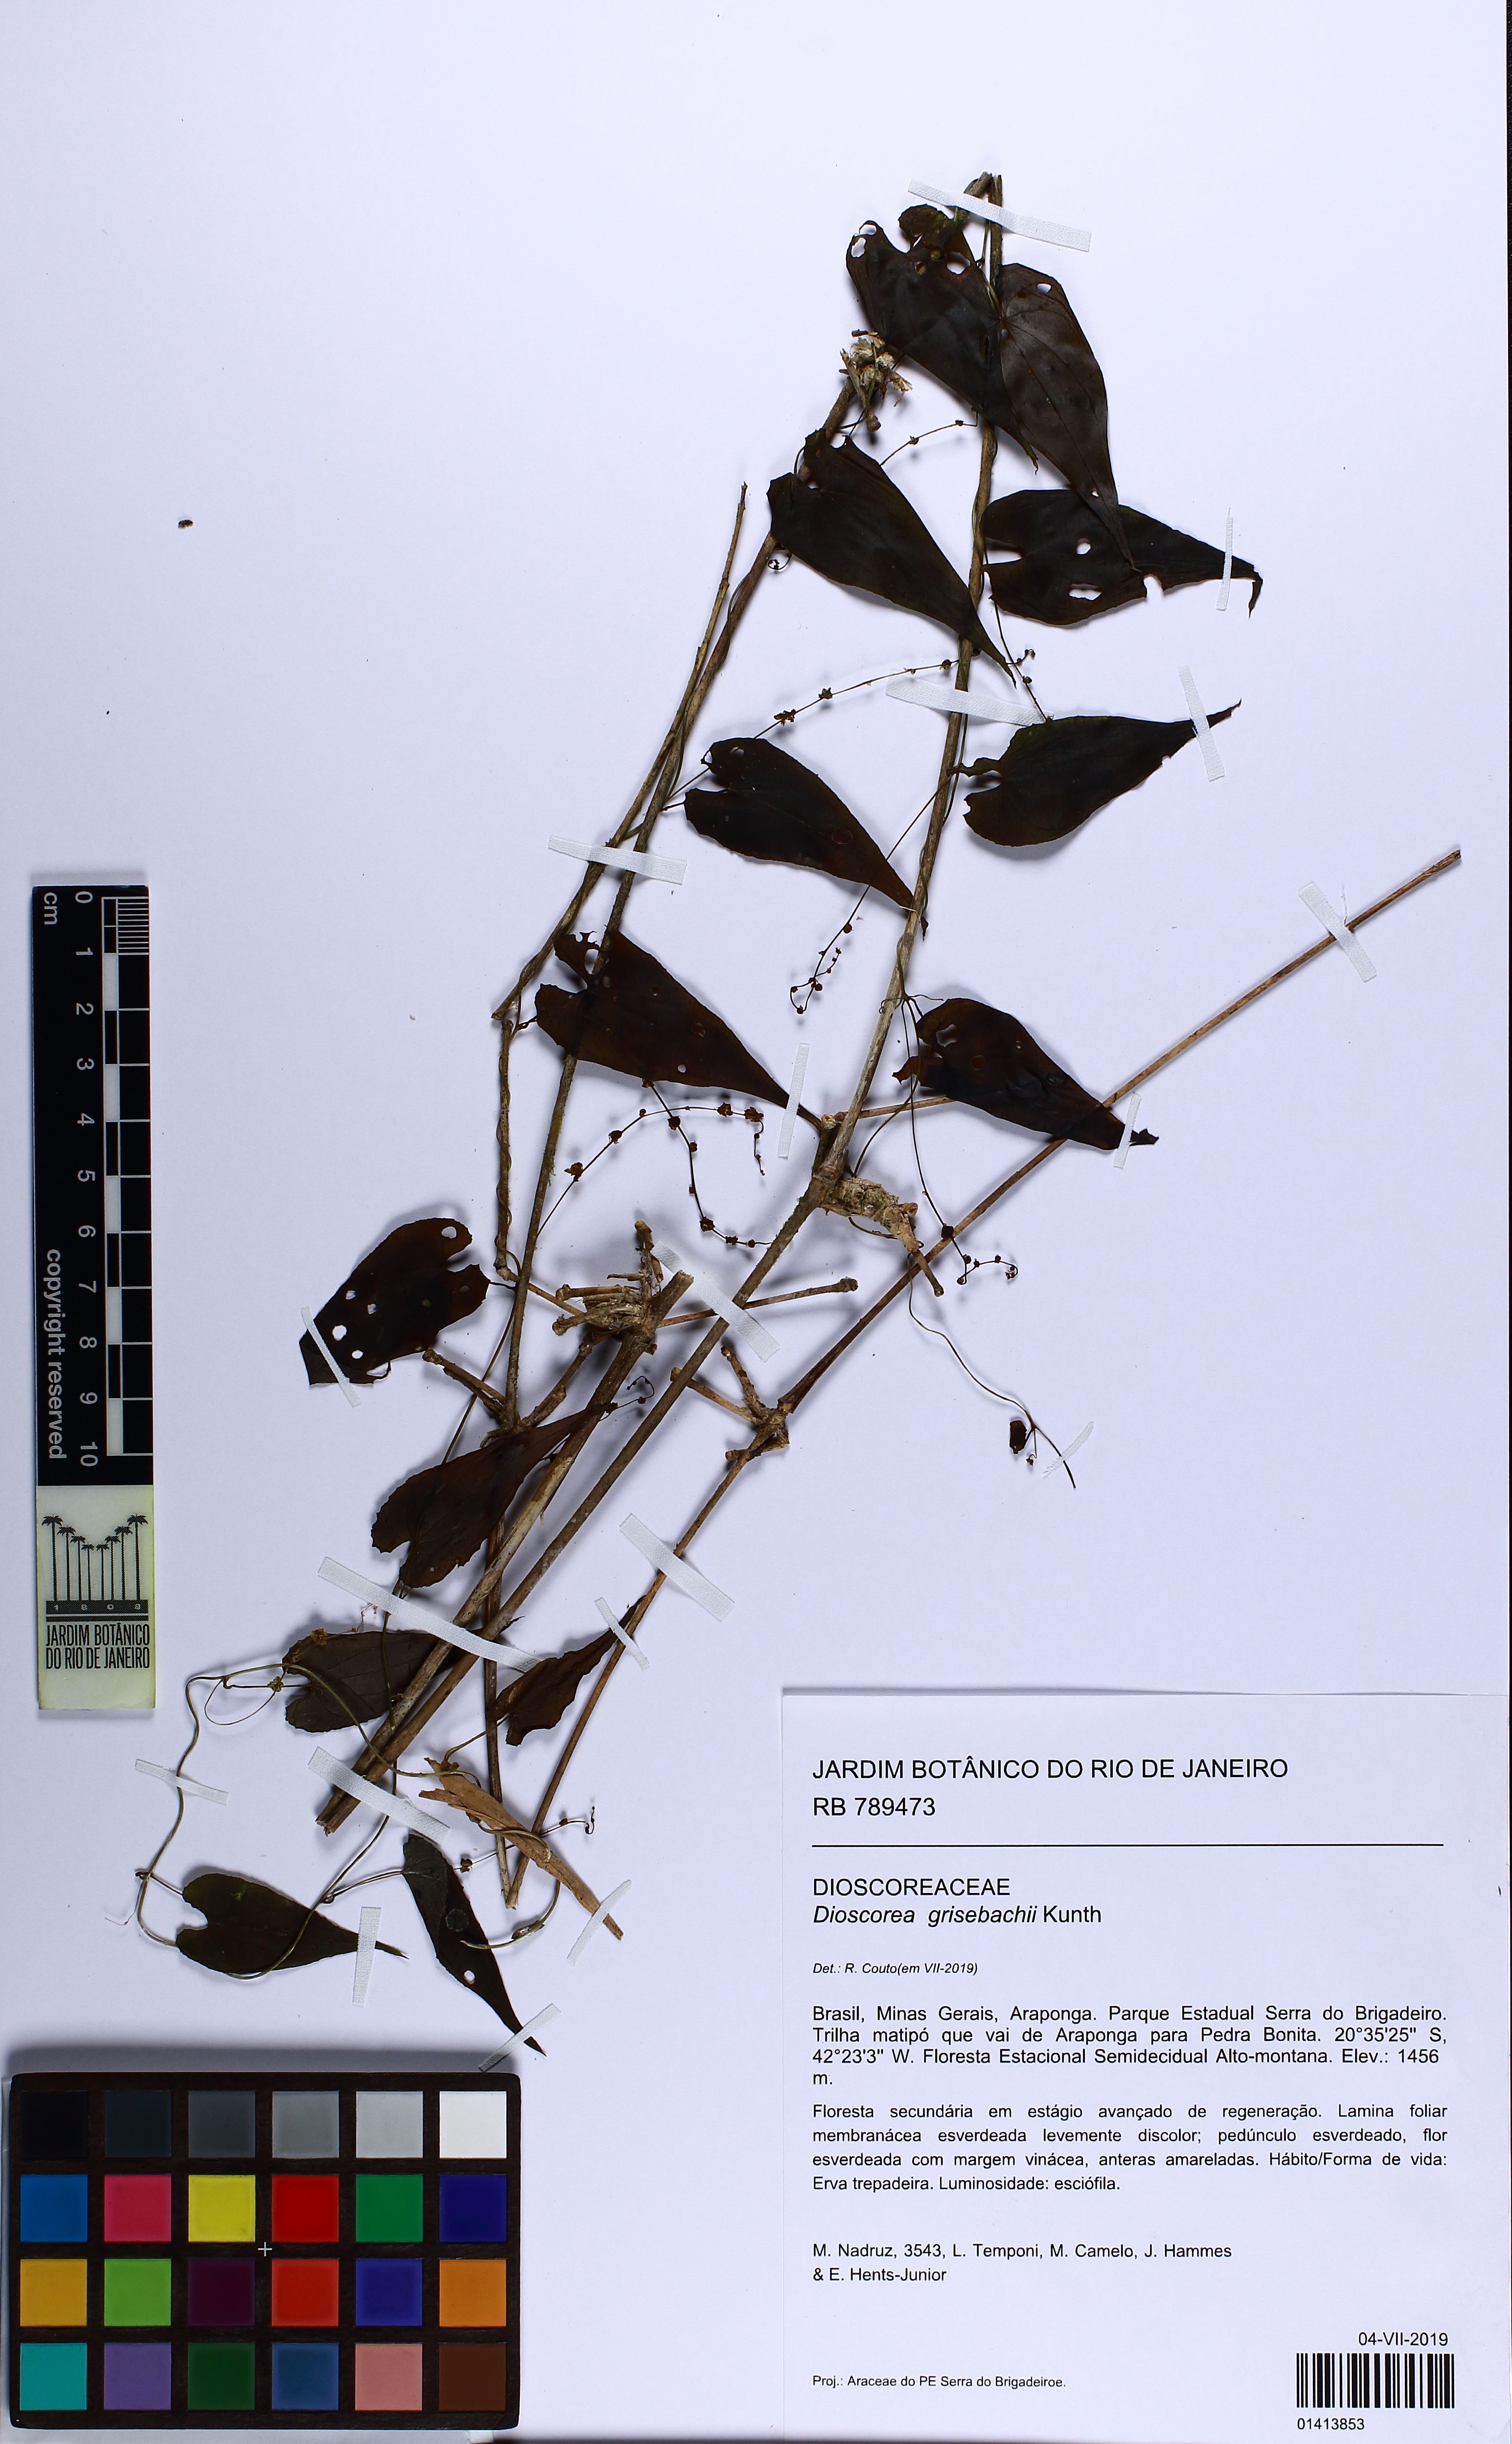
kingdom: Plantae
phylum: Tracheophyta
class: Liliopsida
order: Dioscoreales
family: Dioscoreaceae
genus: Dioscorea
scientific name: Dioscorea grisebachii
